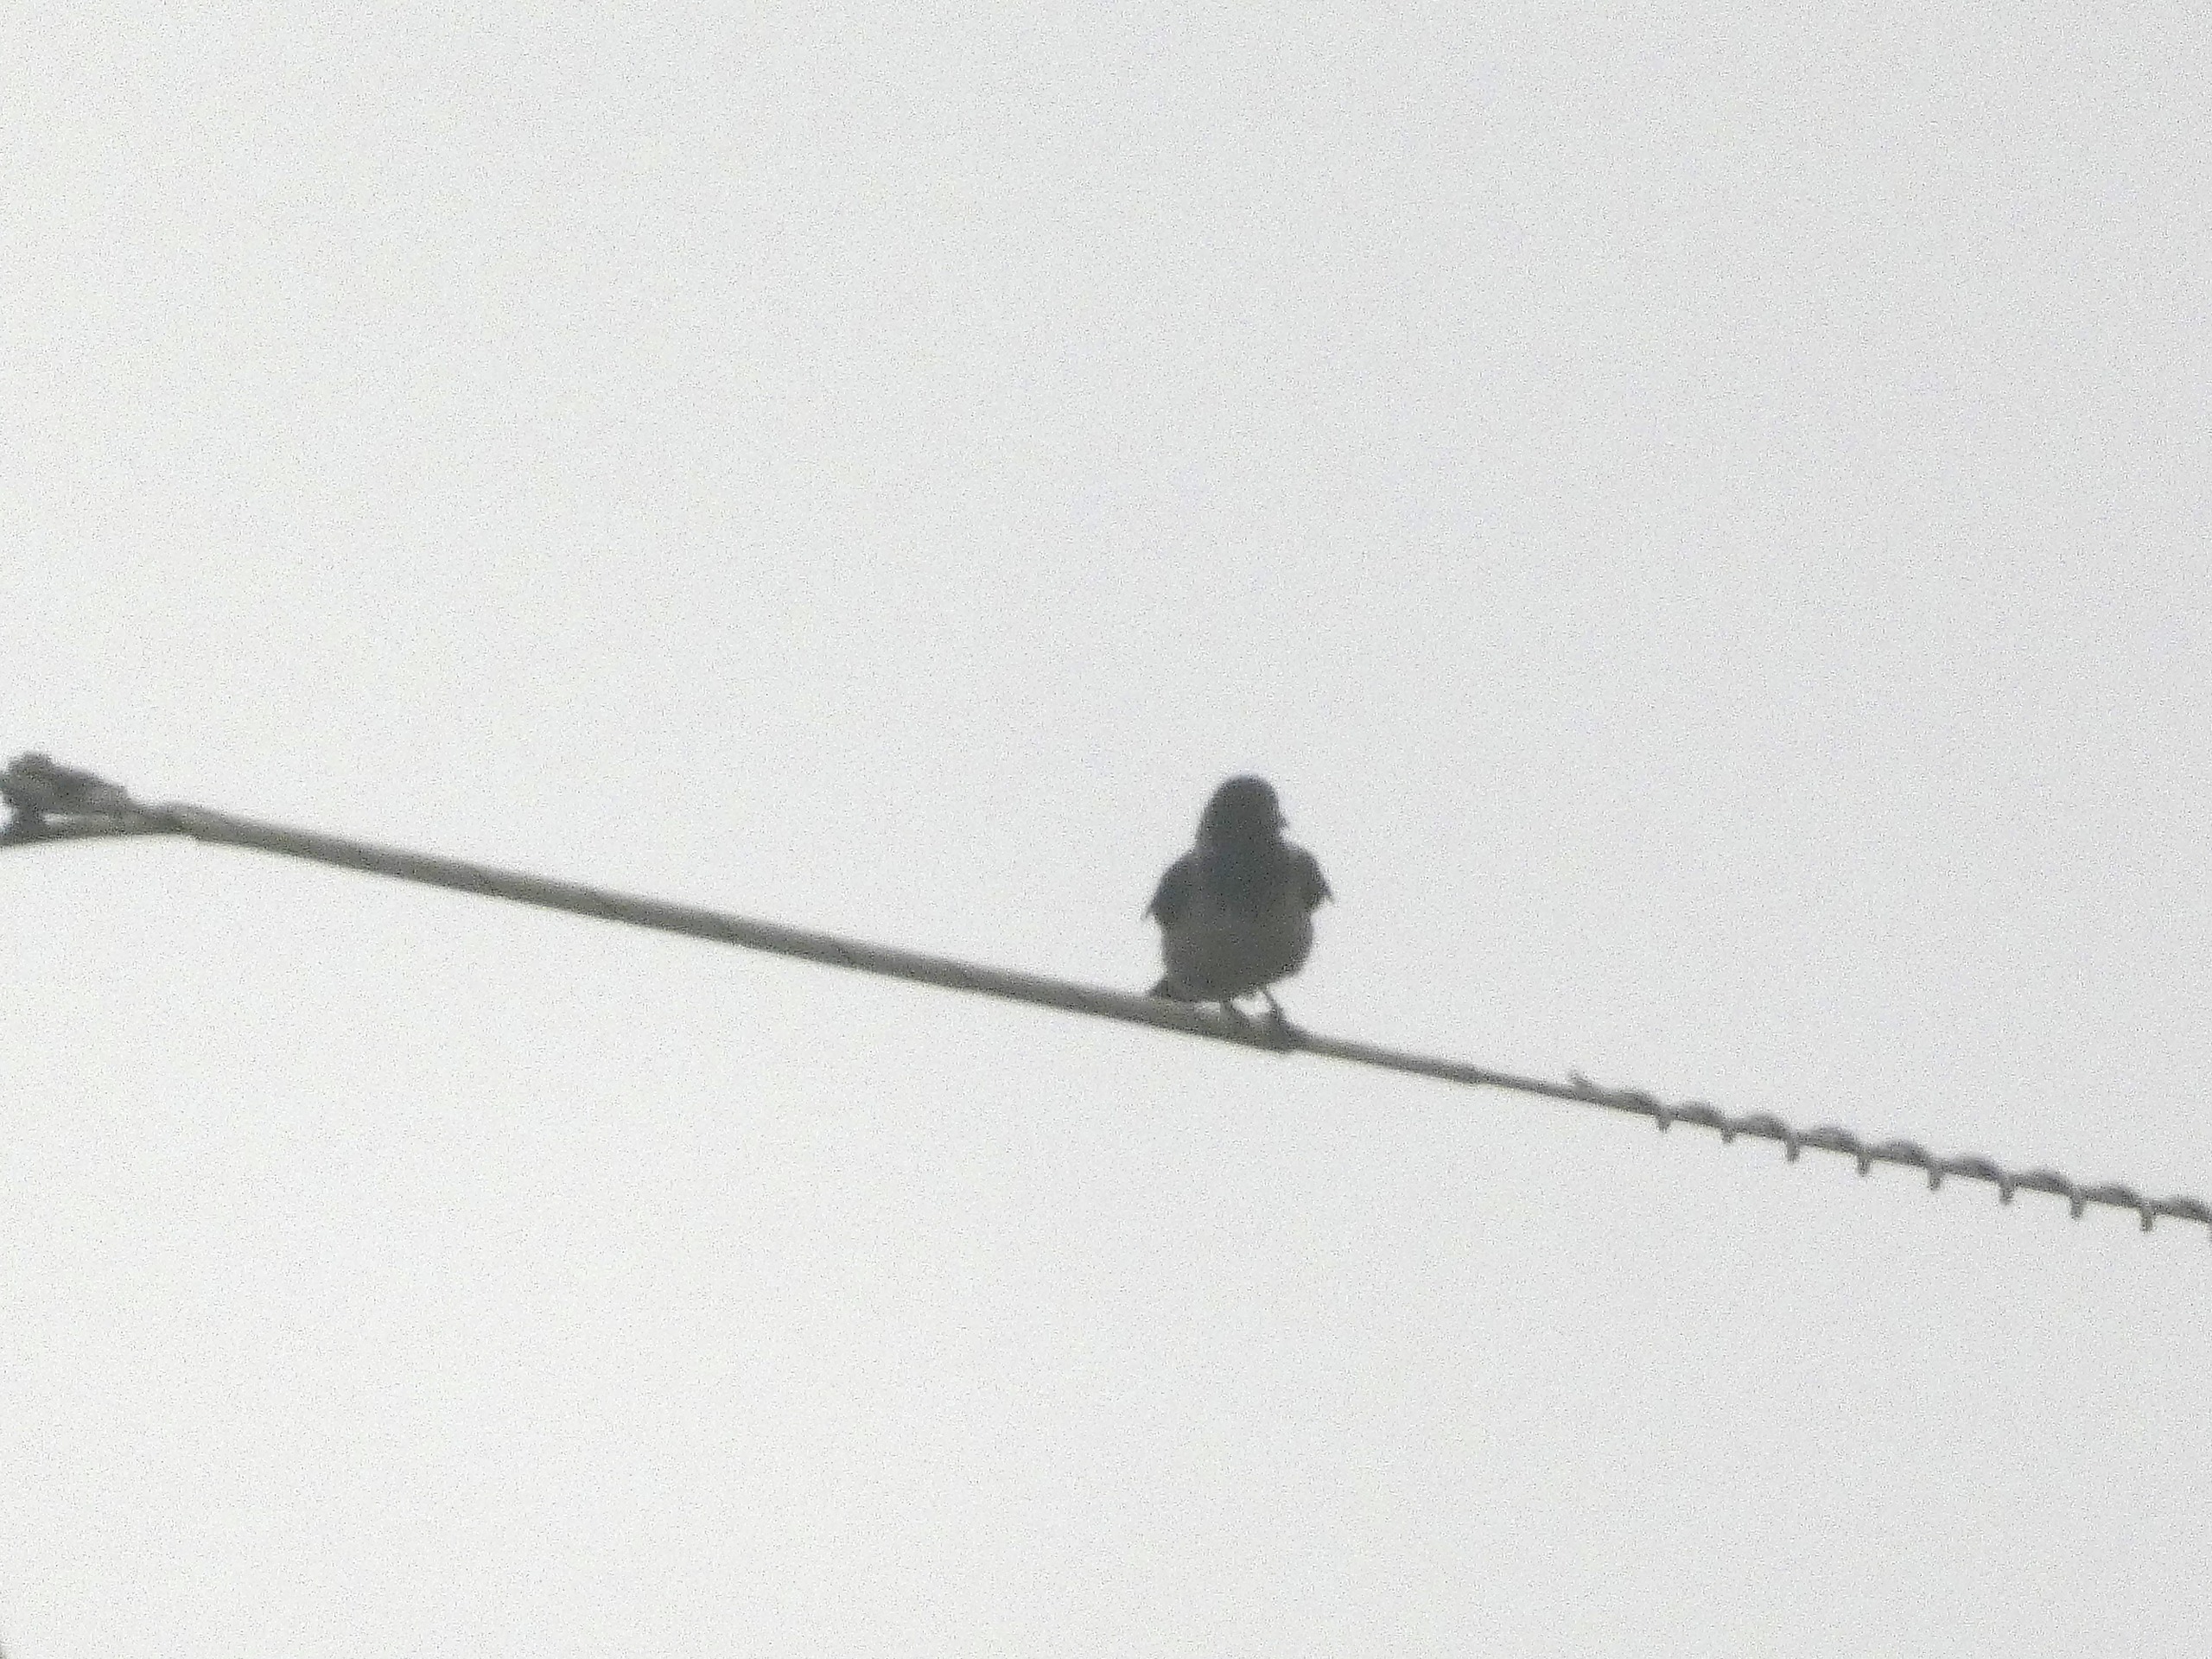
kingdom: Animalia
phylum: Chordata
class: Aves
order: Passeriformes
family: Corvidae
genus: Corvus
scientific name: Corvus cornix
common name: Gråkrage
